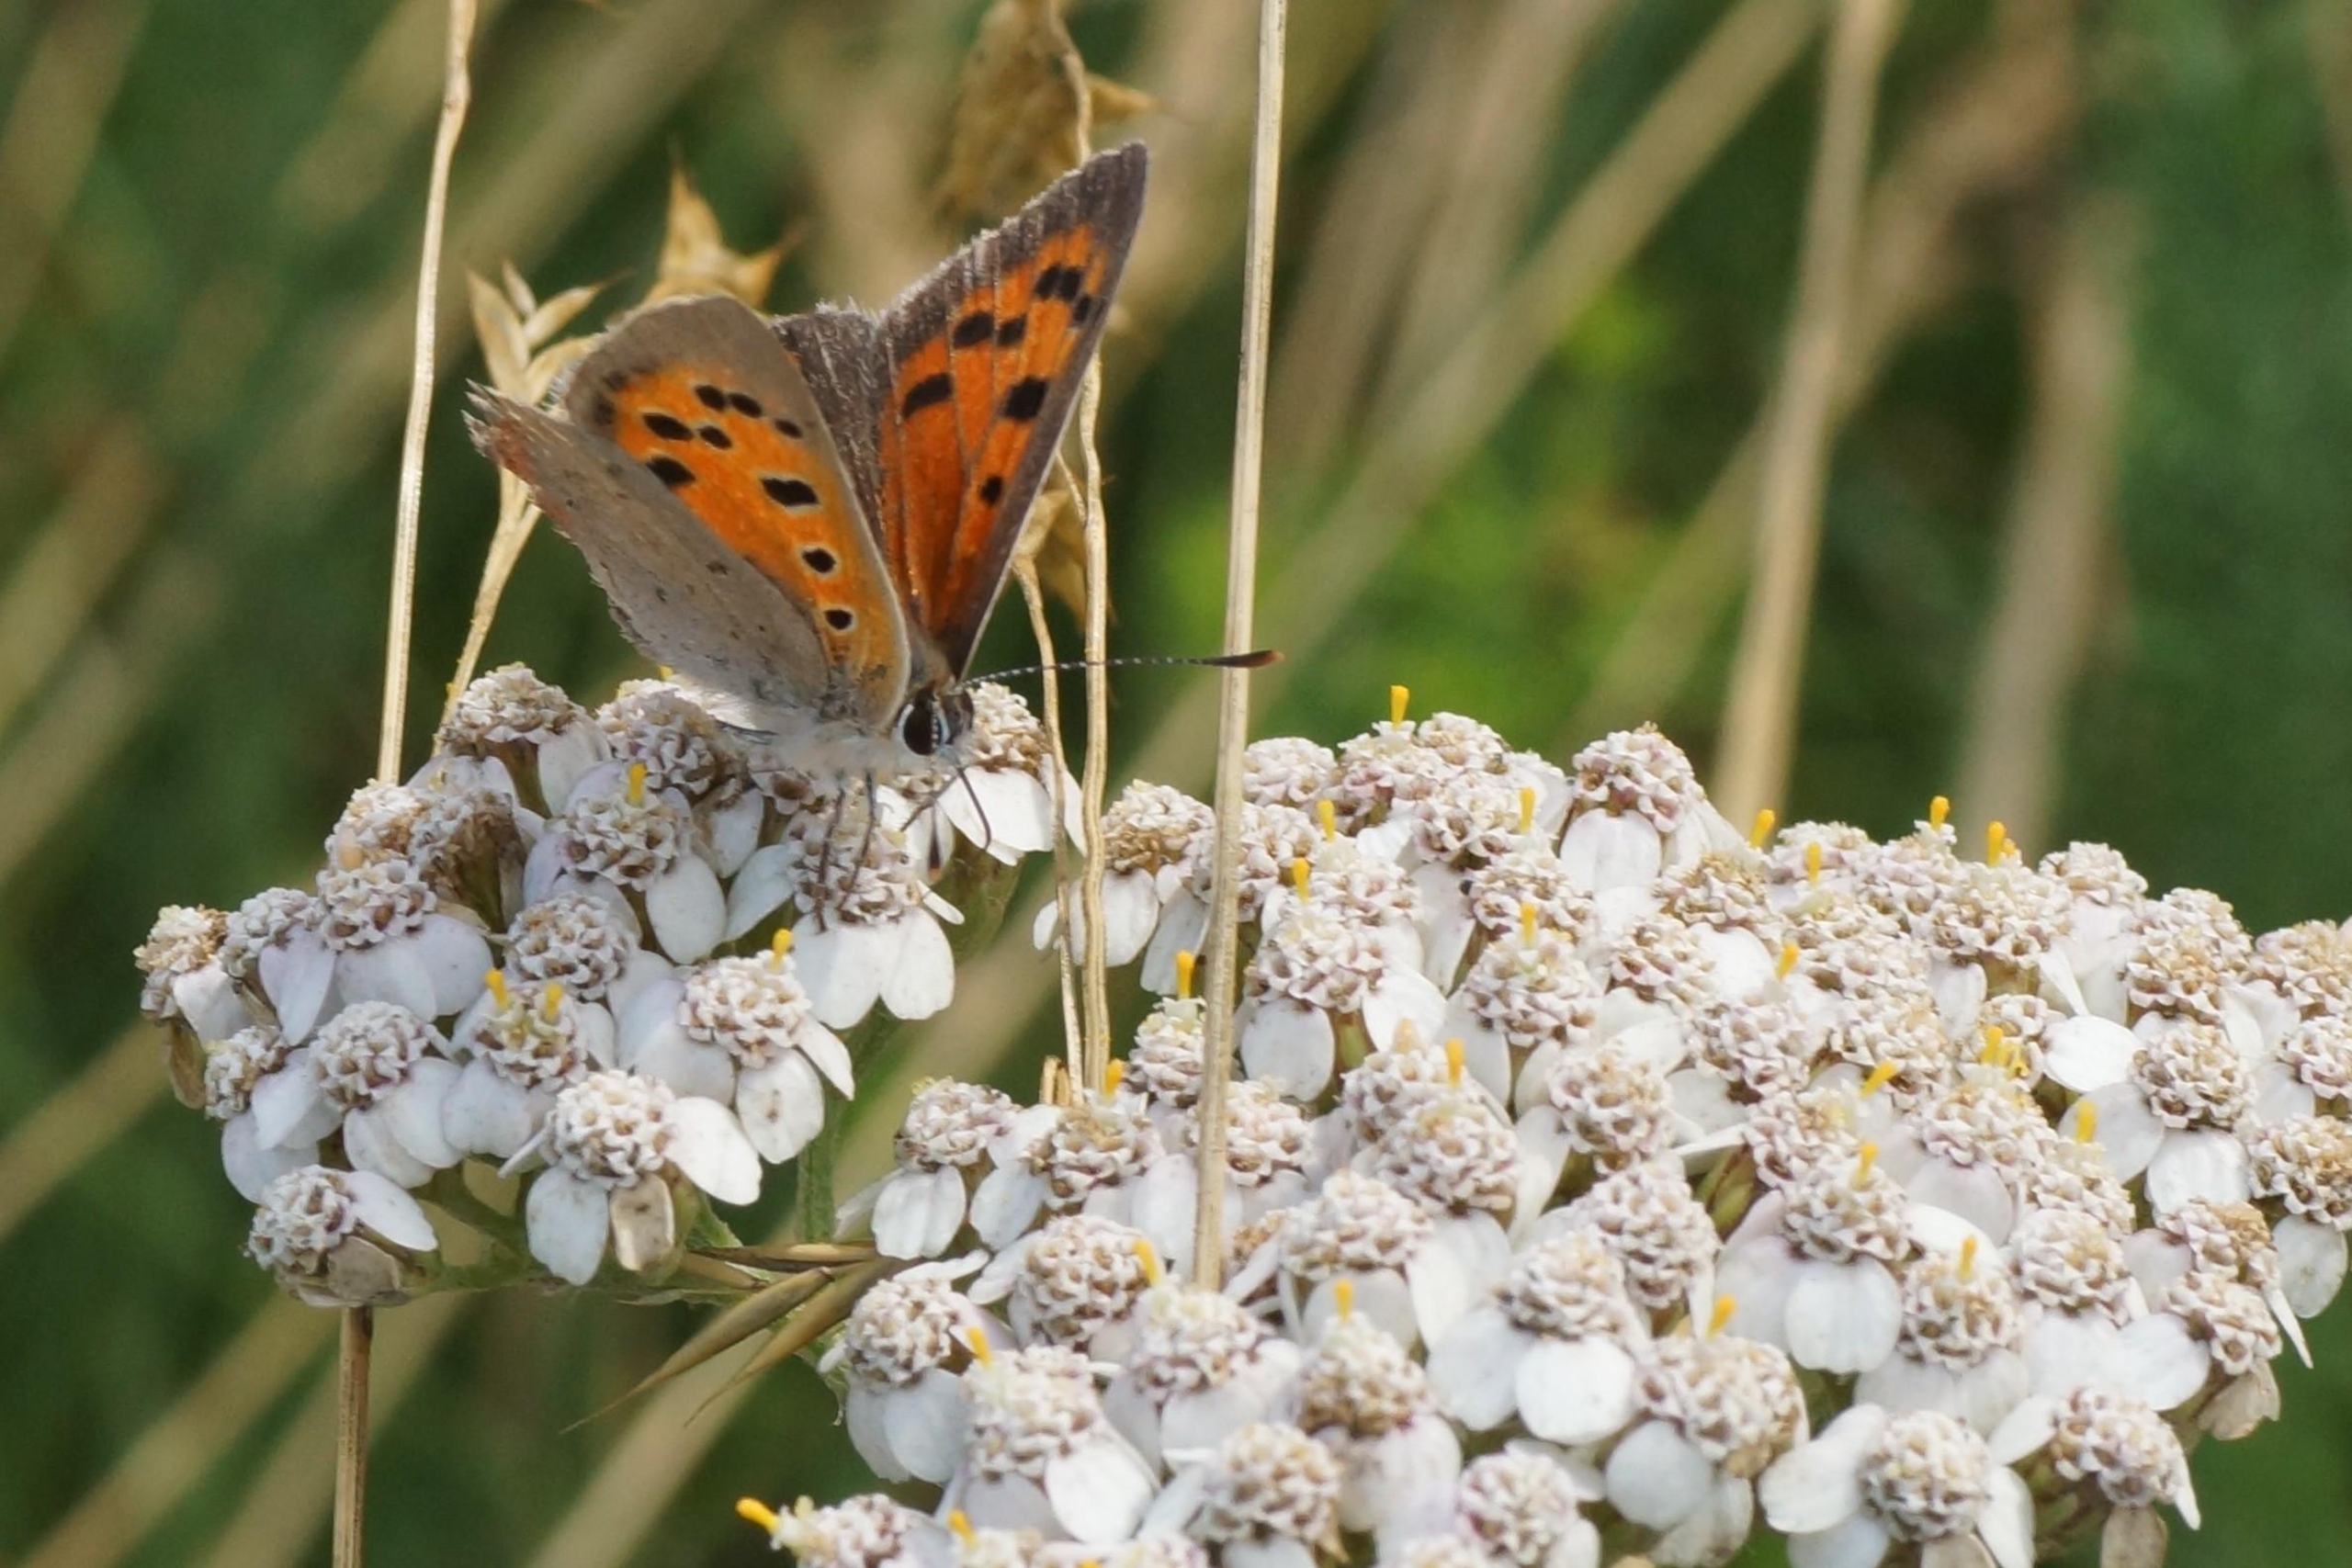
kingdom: Animalia
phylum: Arthropoda
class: Insecta
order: Lepidoptera
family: Lycaenidae
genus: Lycaena
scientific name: Lycaena phlaeas
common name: Lille ildfugl
